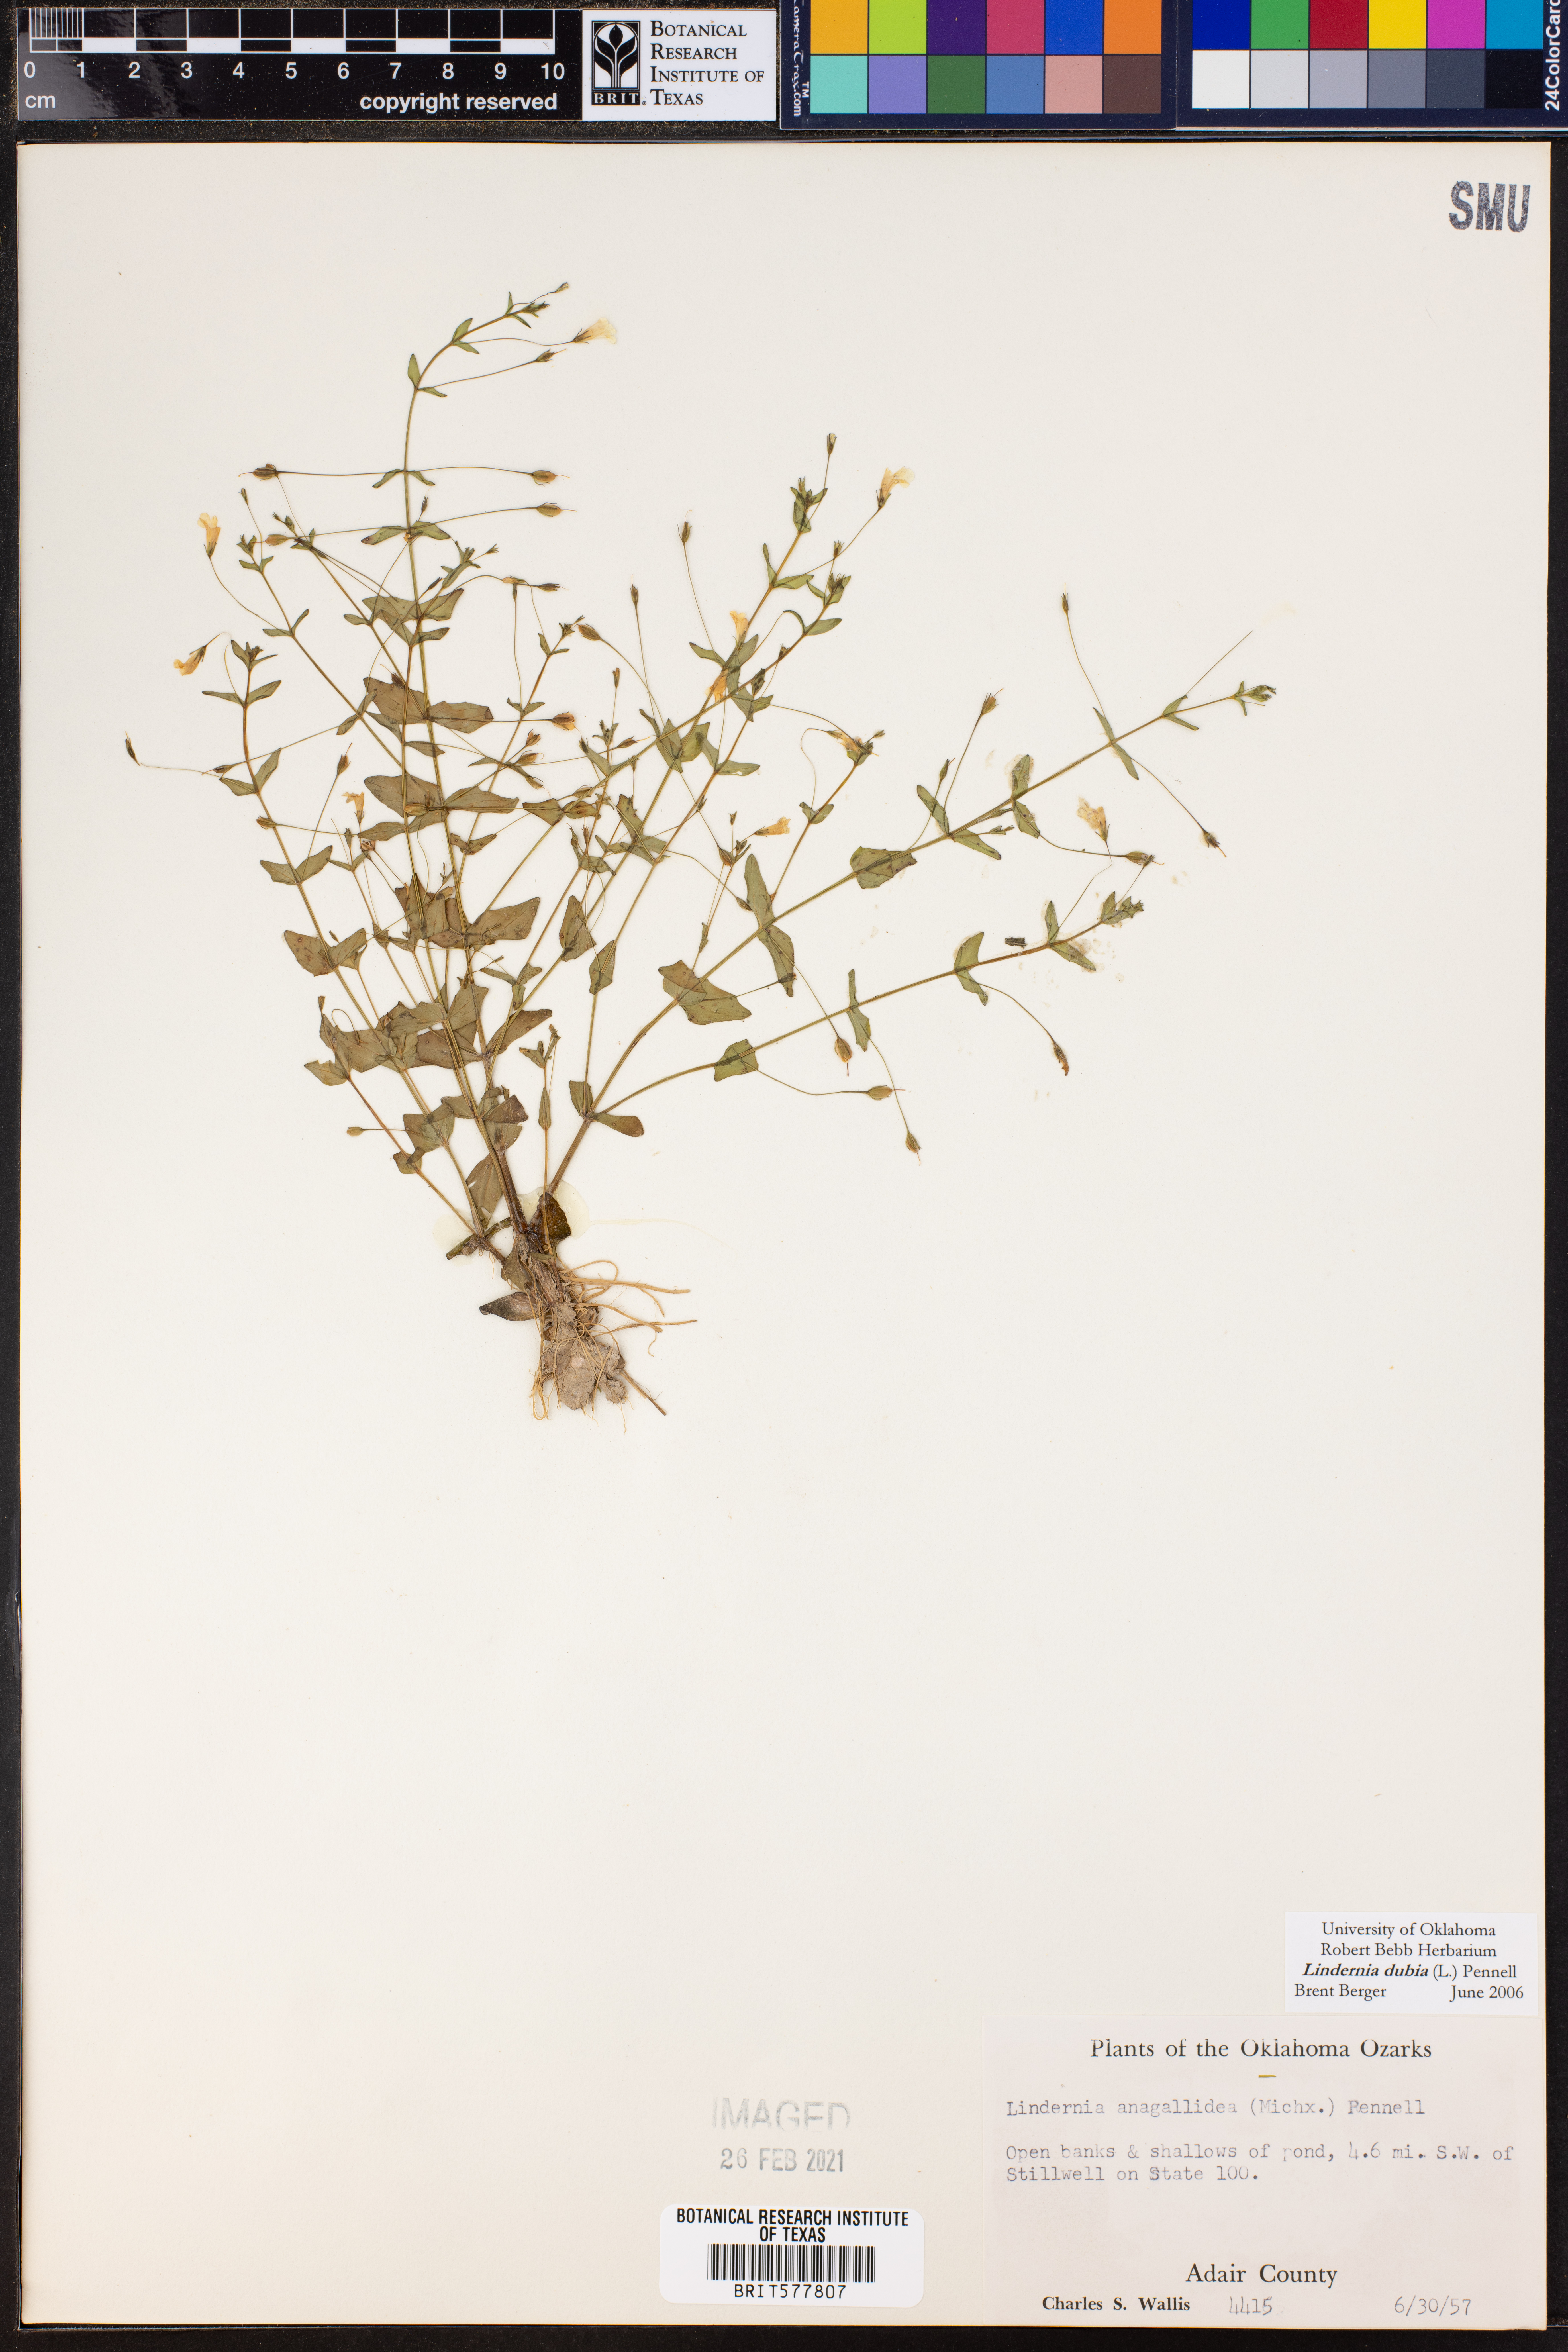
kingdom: Plantae
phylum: Tracheophyta
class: Magnoliopsida
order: Lamiales
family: Linderniaceae
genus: Lindernia
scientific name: Lindernia dubia
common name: Annual false pimpernel
